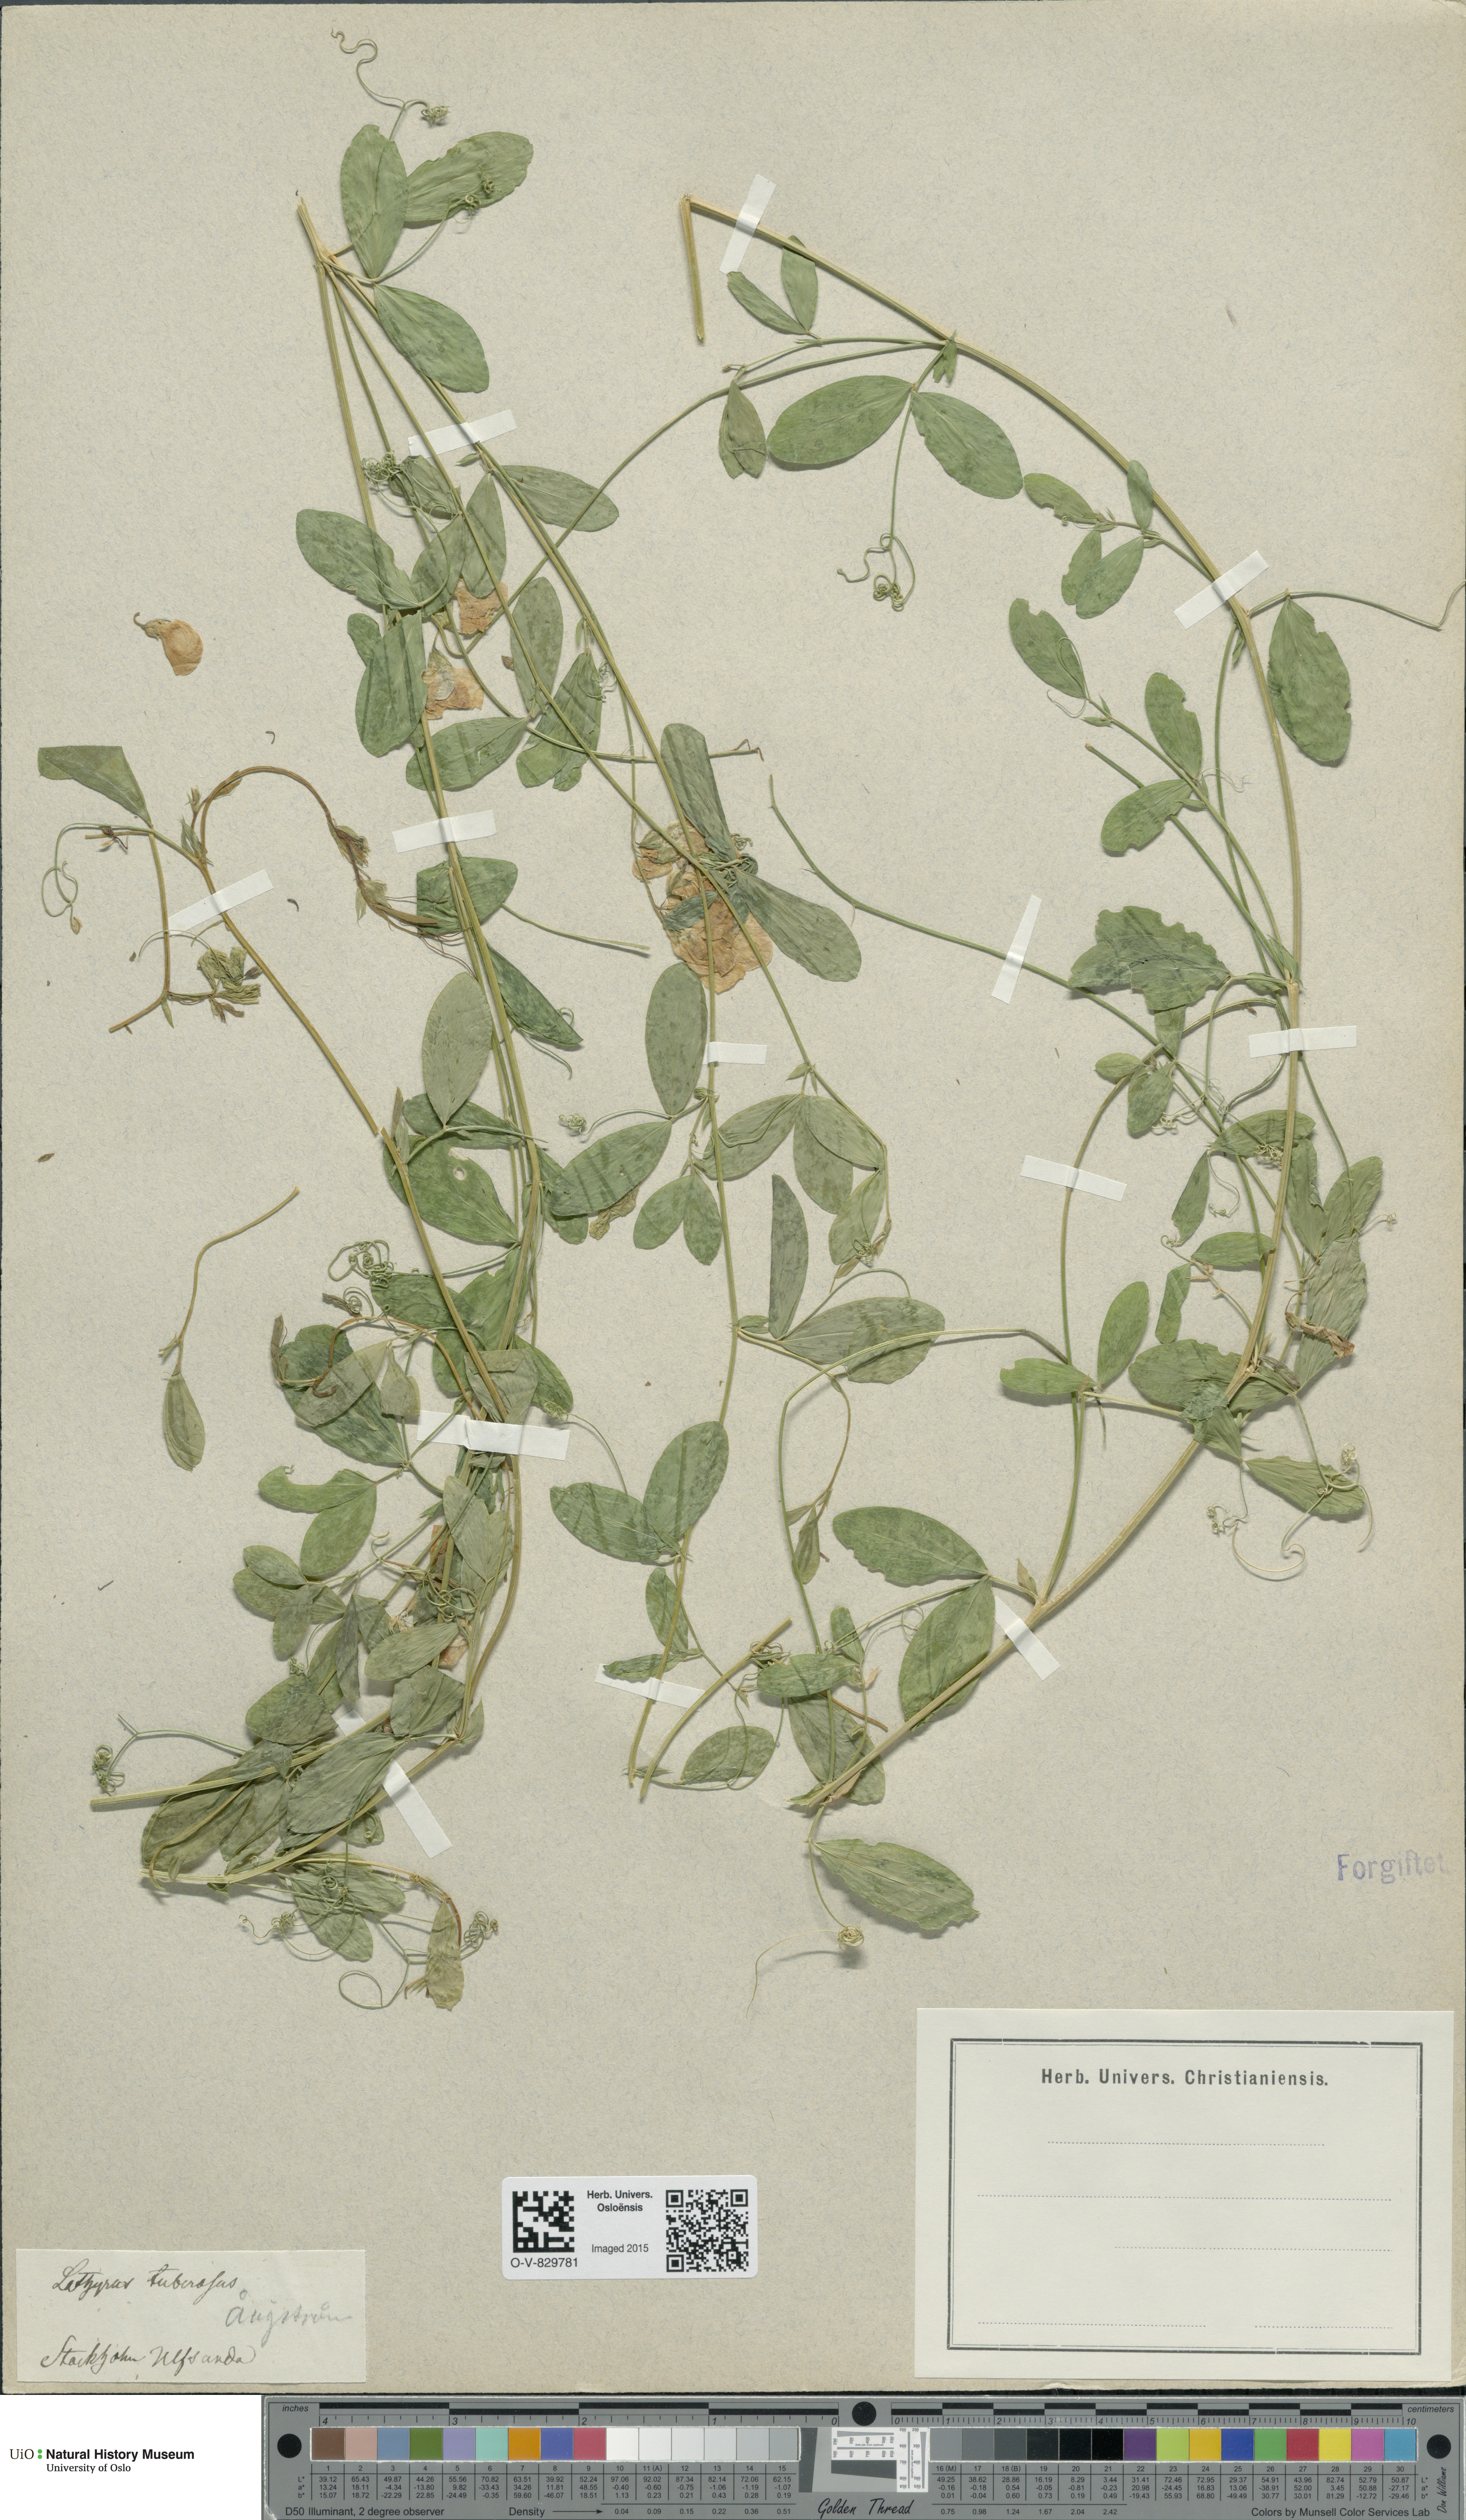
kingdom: Plantae
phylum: Tracheophyta
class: Magnoliopsida
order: Fabales
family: Fabaceae
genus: Lathyrus
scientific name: Lathyrus tuberosus
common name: Tuberous pea
